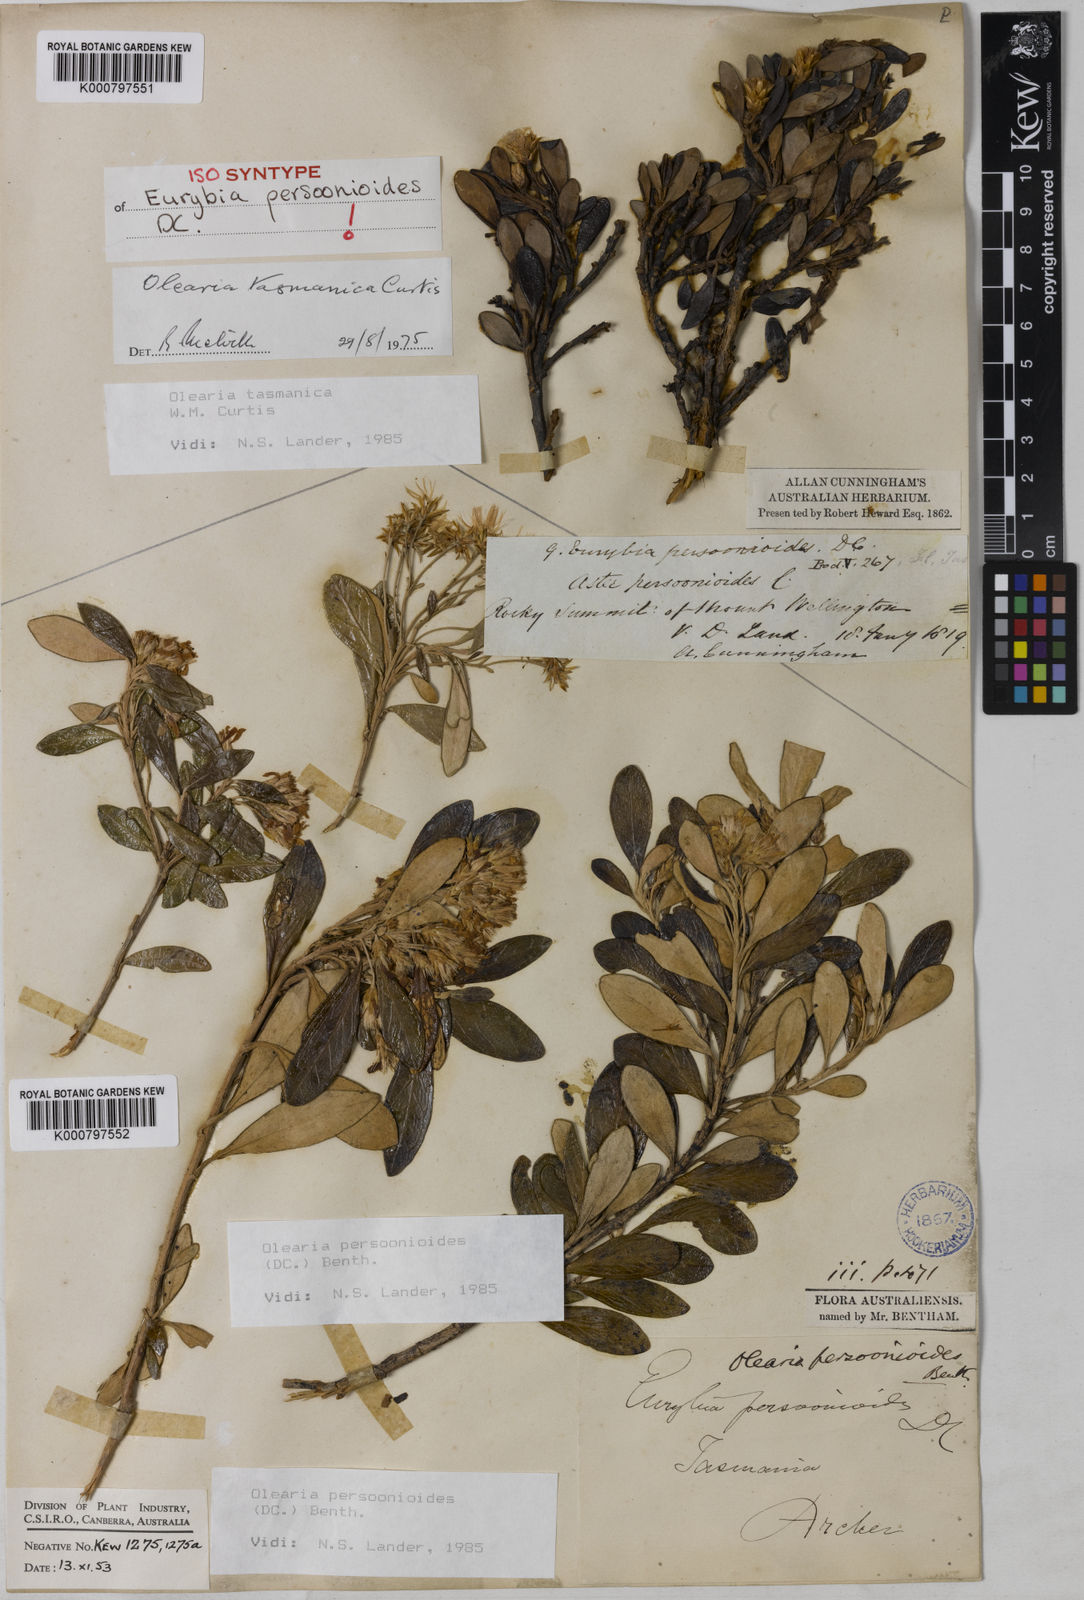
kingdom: Plantae
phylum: Tracheophyta
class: Magnoliopsida
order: Asterales
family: Asteraceae
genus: Olearia
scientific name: Olearia persoonioides
